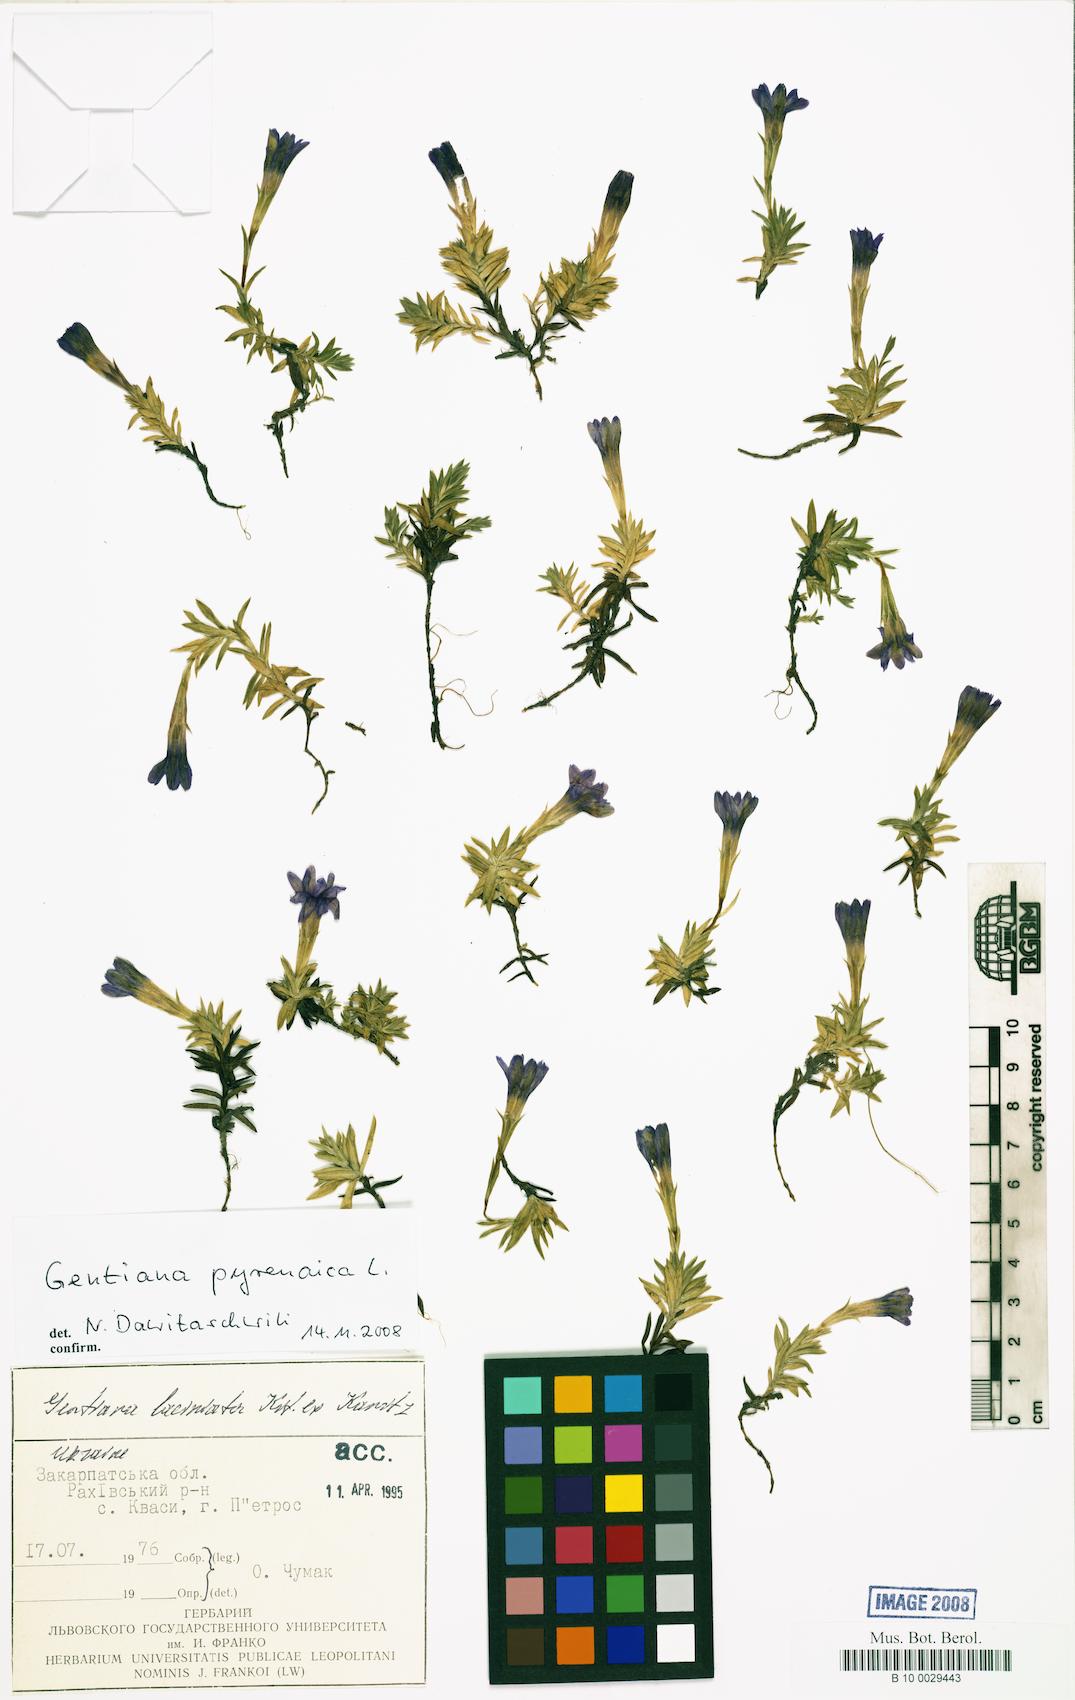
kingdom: Plantae
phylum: Tracheophyta
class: Magnoliopsida
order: Gentianales
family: Gentianaceae
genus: Gentiana
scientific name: Gentiana pyrenaica
